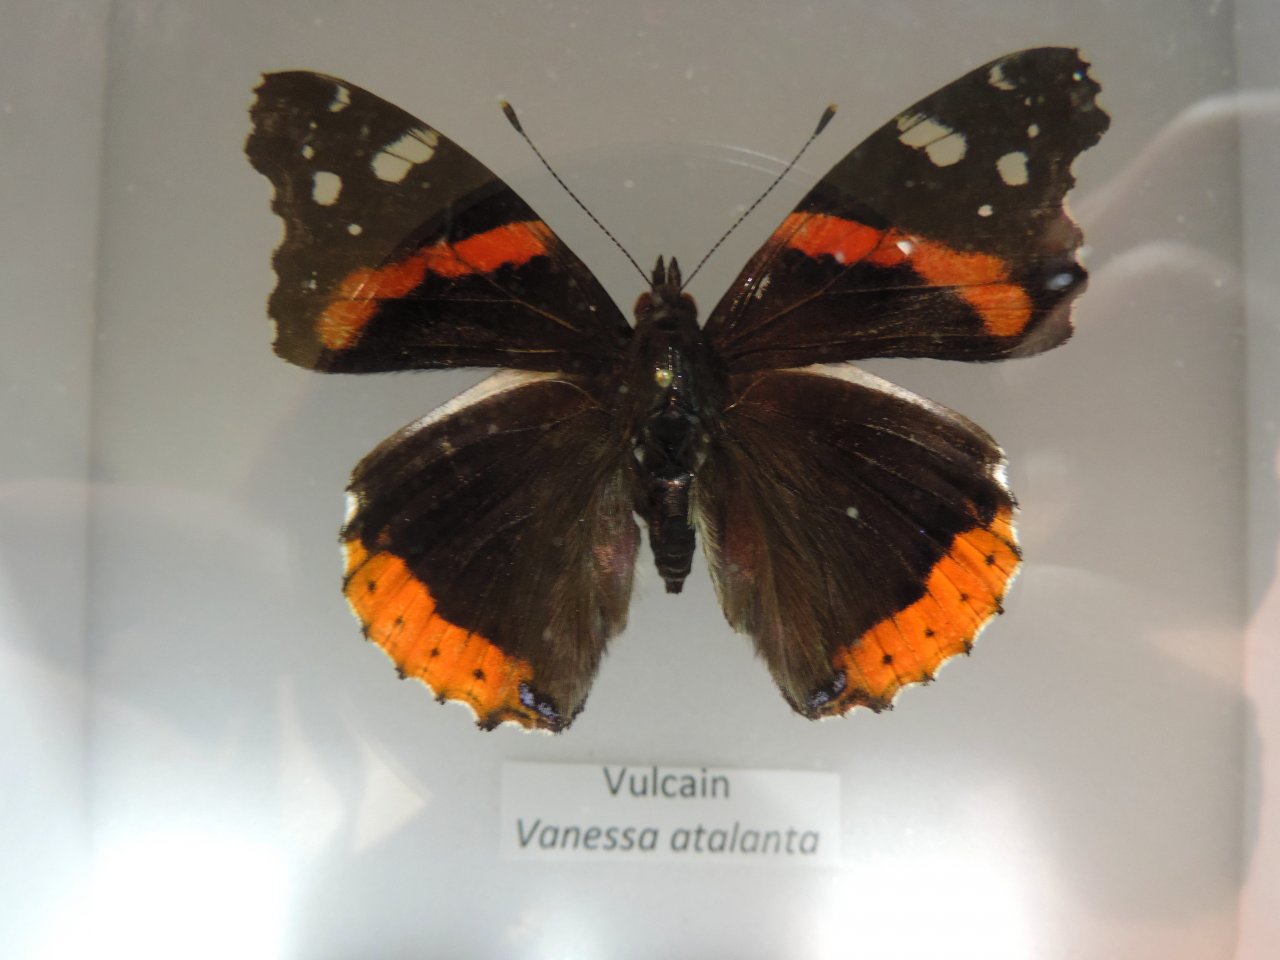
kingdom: Animalia
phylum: Arthropoda
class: Insecta
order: Lepidoptera
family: Nymphalidae
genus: Vanessa
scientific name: Vanessa atalanta
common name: Red Admiral
